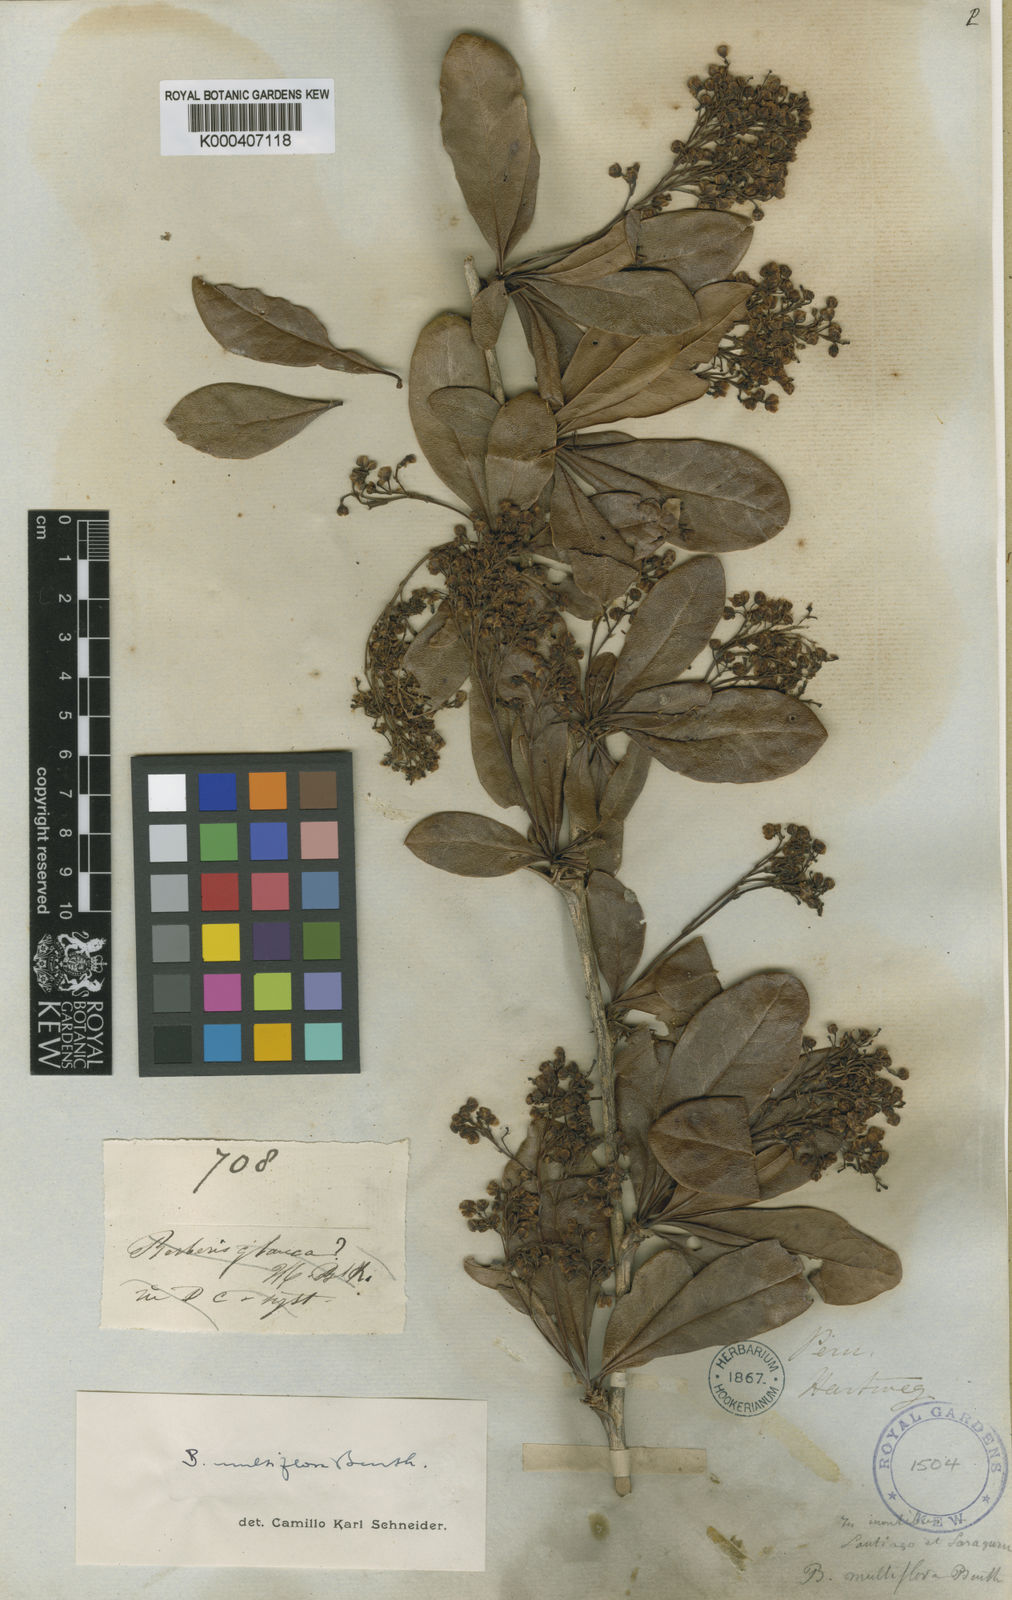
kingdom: Plantae
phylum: Tracheophyta
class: Magnoliopsida
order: Ranunculales
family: Berberidaceae
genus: Berberis
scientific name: Berberis multiflora
